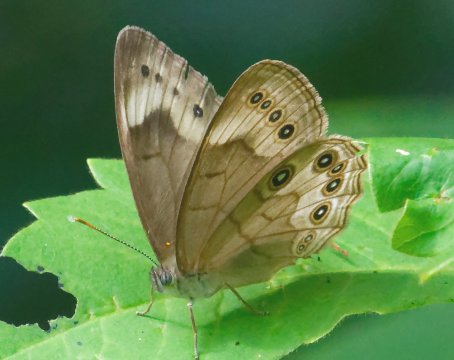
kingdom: Animalia
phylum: Arthropoda
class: Insecta
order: Lepidoptera
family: Nymphalidae
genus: Lethe
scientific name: Lethe eurydice
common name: Appalachian Eyed Brown
